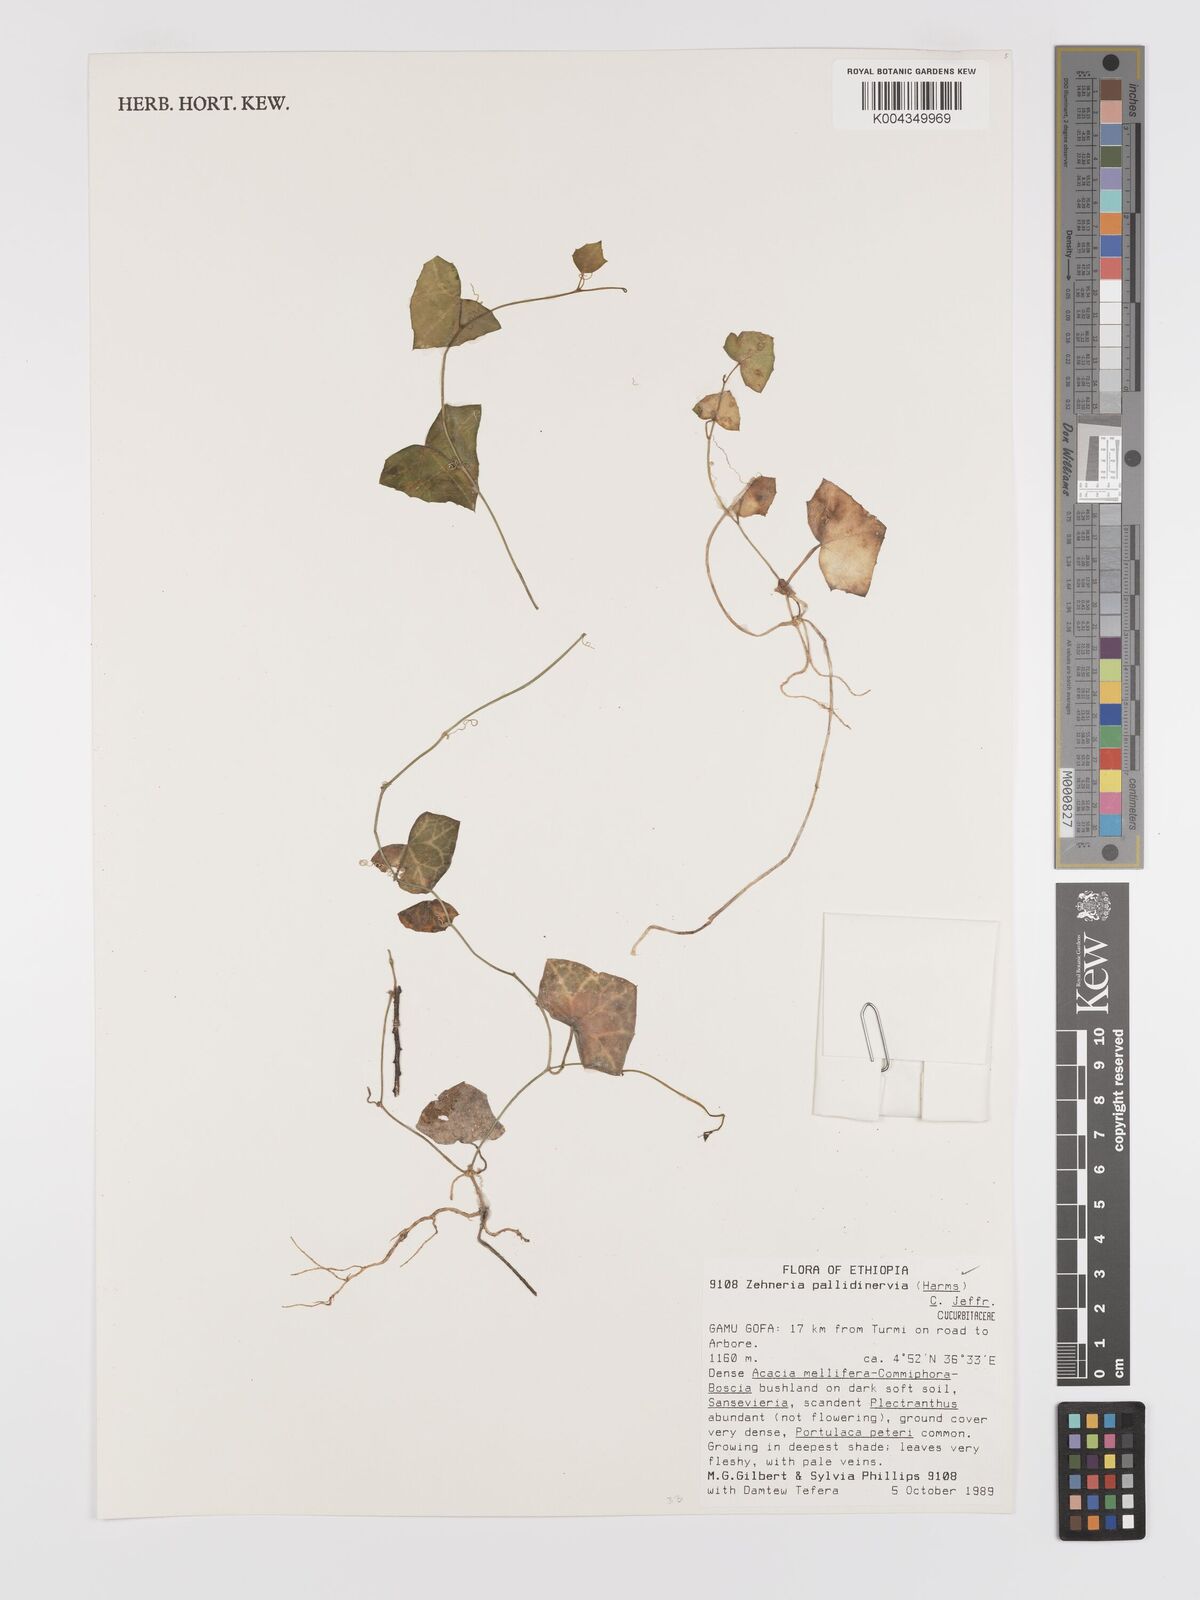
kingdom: Plantae
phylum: Tracheophyta
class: Magnoliopsida
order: Cucurbitales
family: Cucurbitaceae
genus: Zehneria
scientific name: Zehneria pallidinervia
